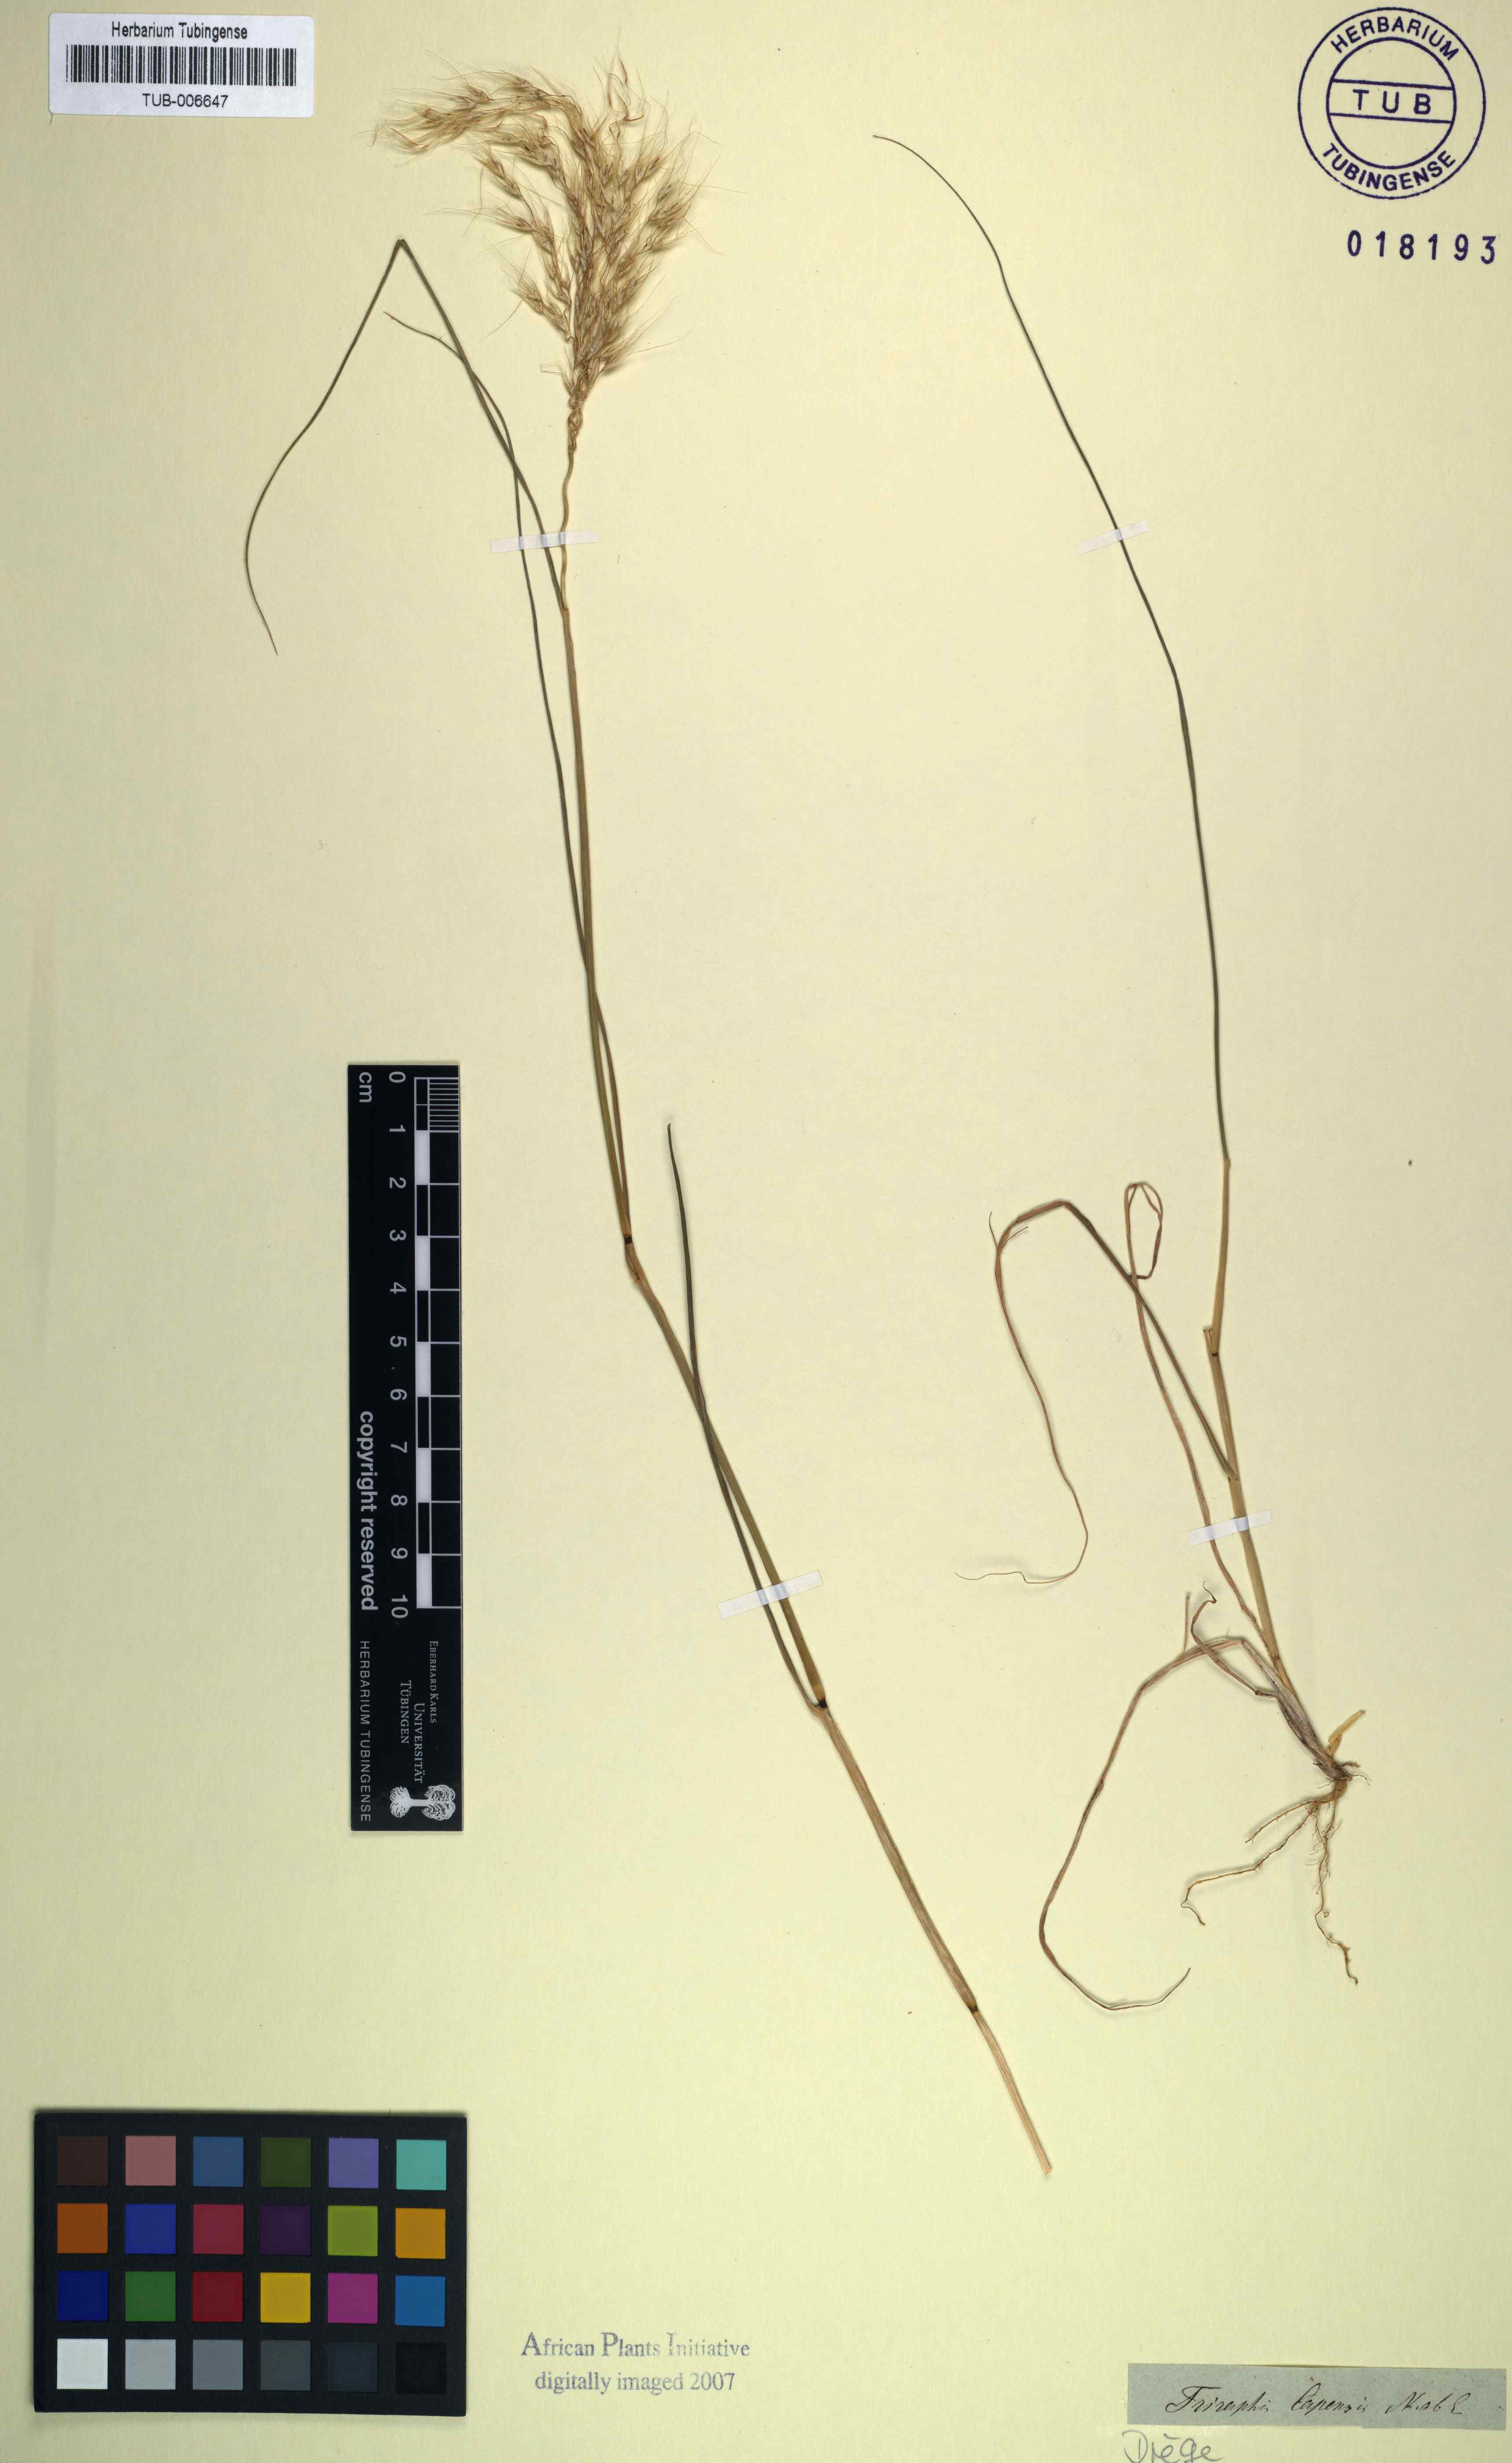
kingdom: Plantae
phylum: Tracheophyta
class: Liliopsida
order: Poales
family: Poaceae
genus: Pentameris
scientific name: Pentameris capensis
